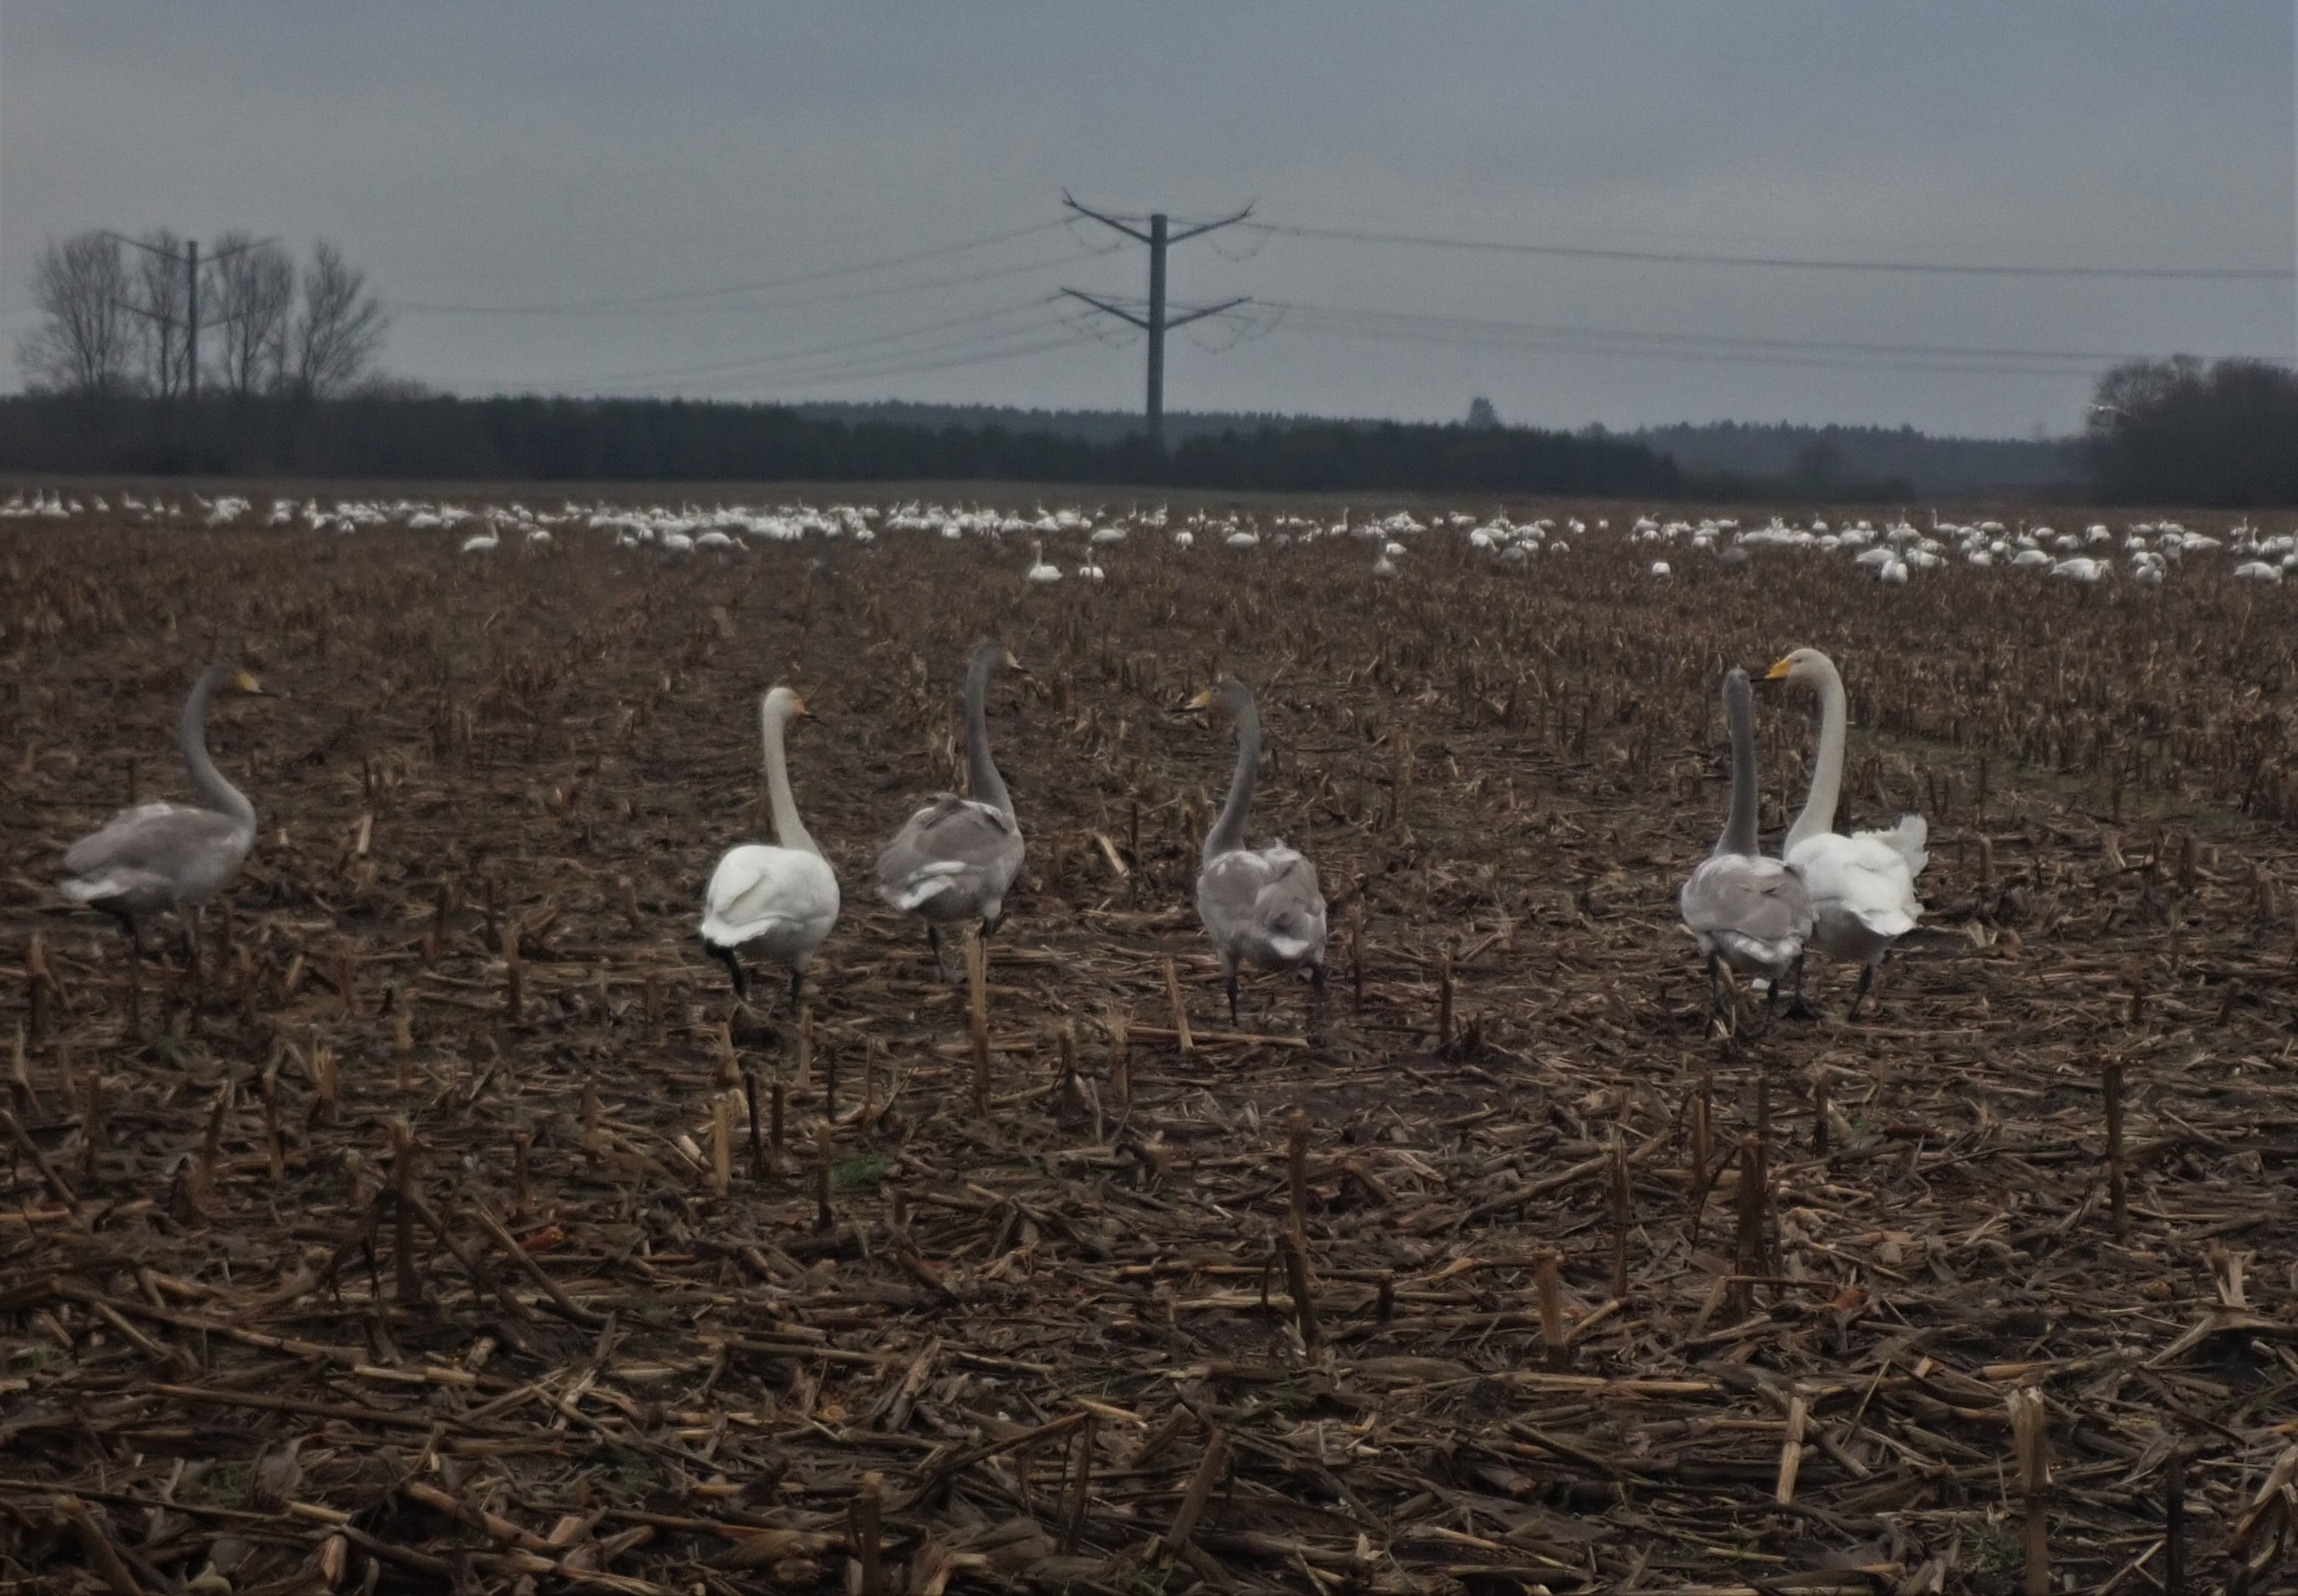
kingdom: Animalia
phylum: Chordata
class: Aves
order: Anseriformes
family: Anatidae
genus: Cygnus
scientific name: Cygnus cygnus
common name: Sangsvane
